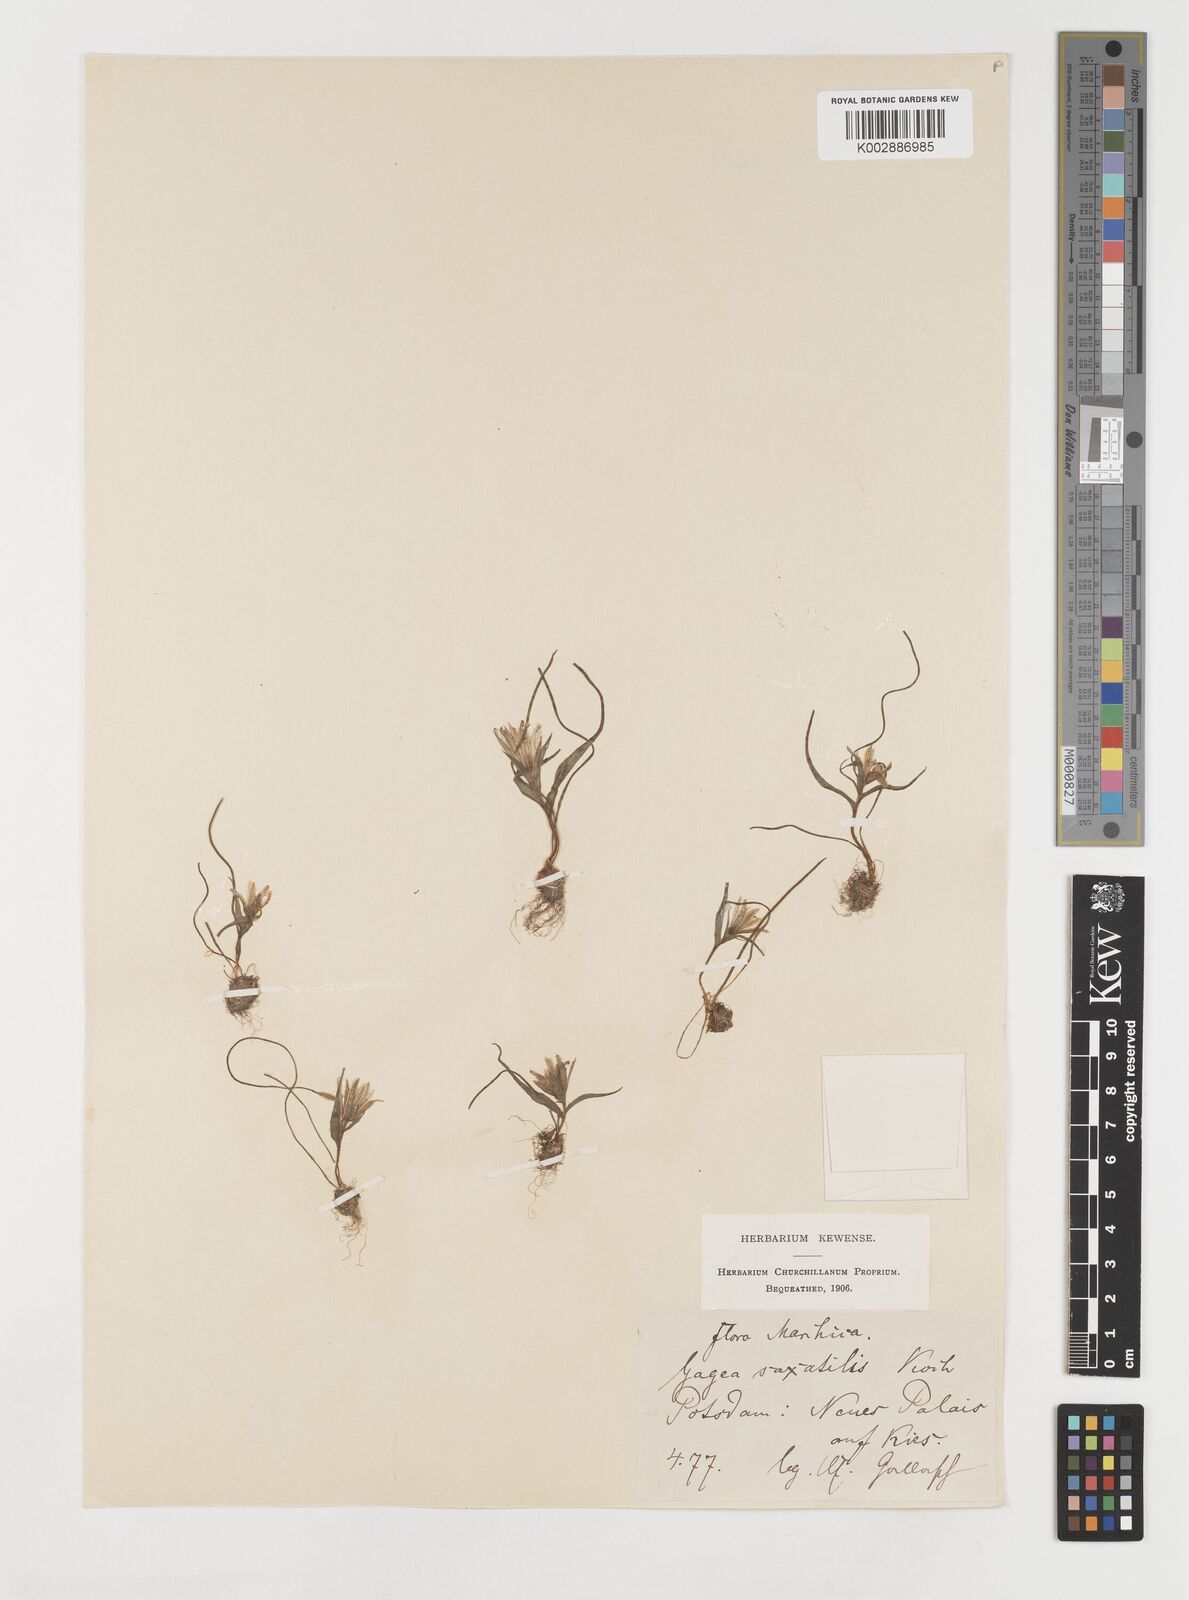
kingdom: Plantae
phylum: Tracheophyta
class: Liliopsida
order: Liliales
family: Liliaceae
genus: Gagea
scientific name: Gagea bohemica
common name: Early star-of-bethlehem
